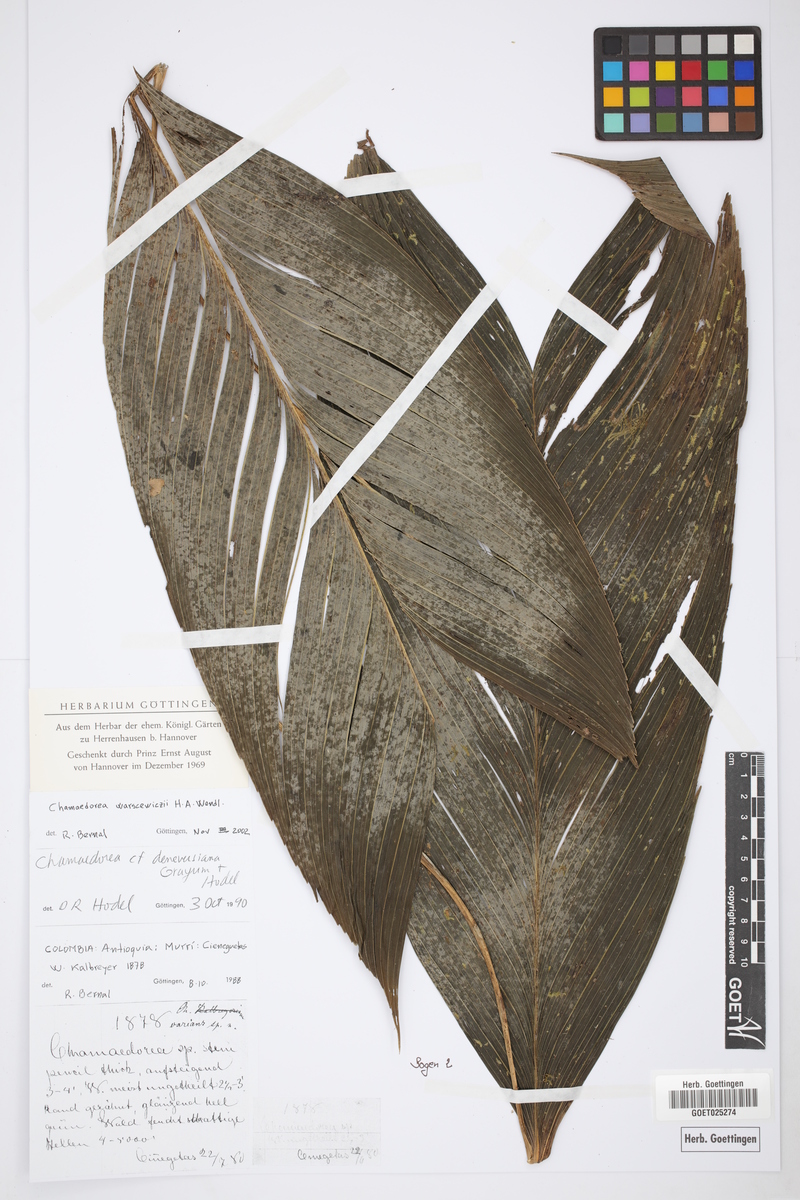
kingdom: Plantae
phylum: Tracheophyta
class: Liliopsida
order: Arecales
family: Arecaceae
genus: Chamaedorea
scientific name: Chamaedorea warscewiczii
